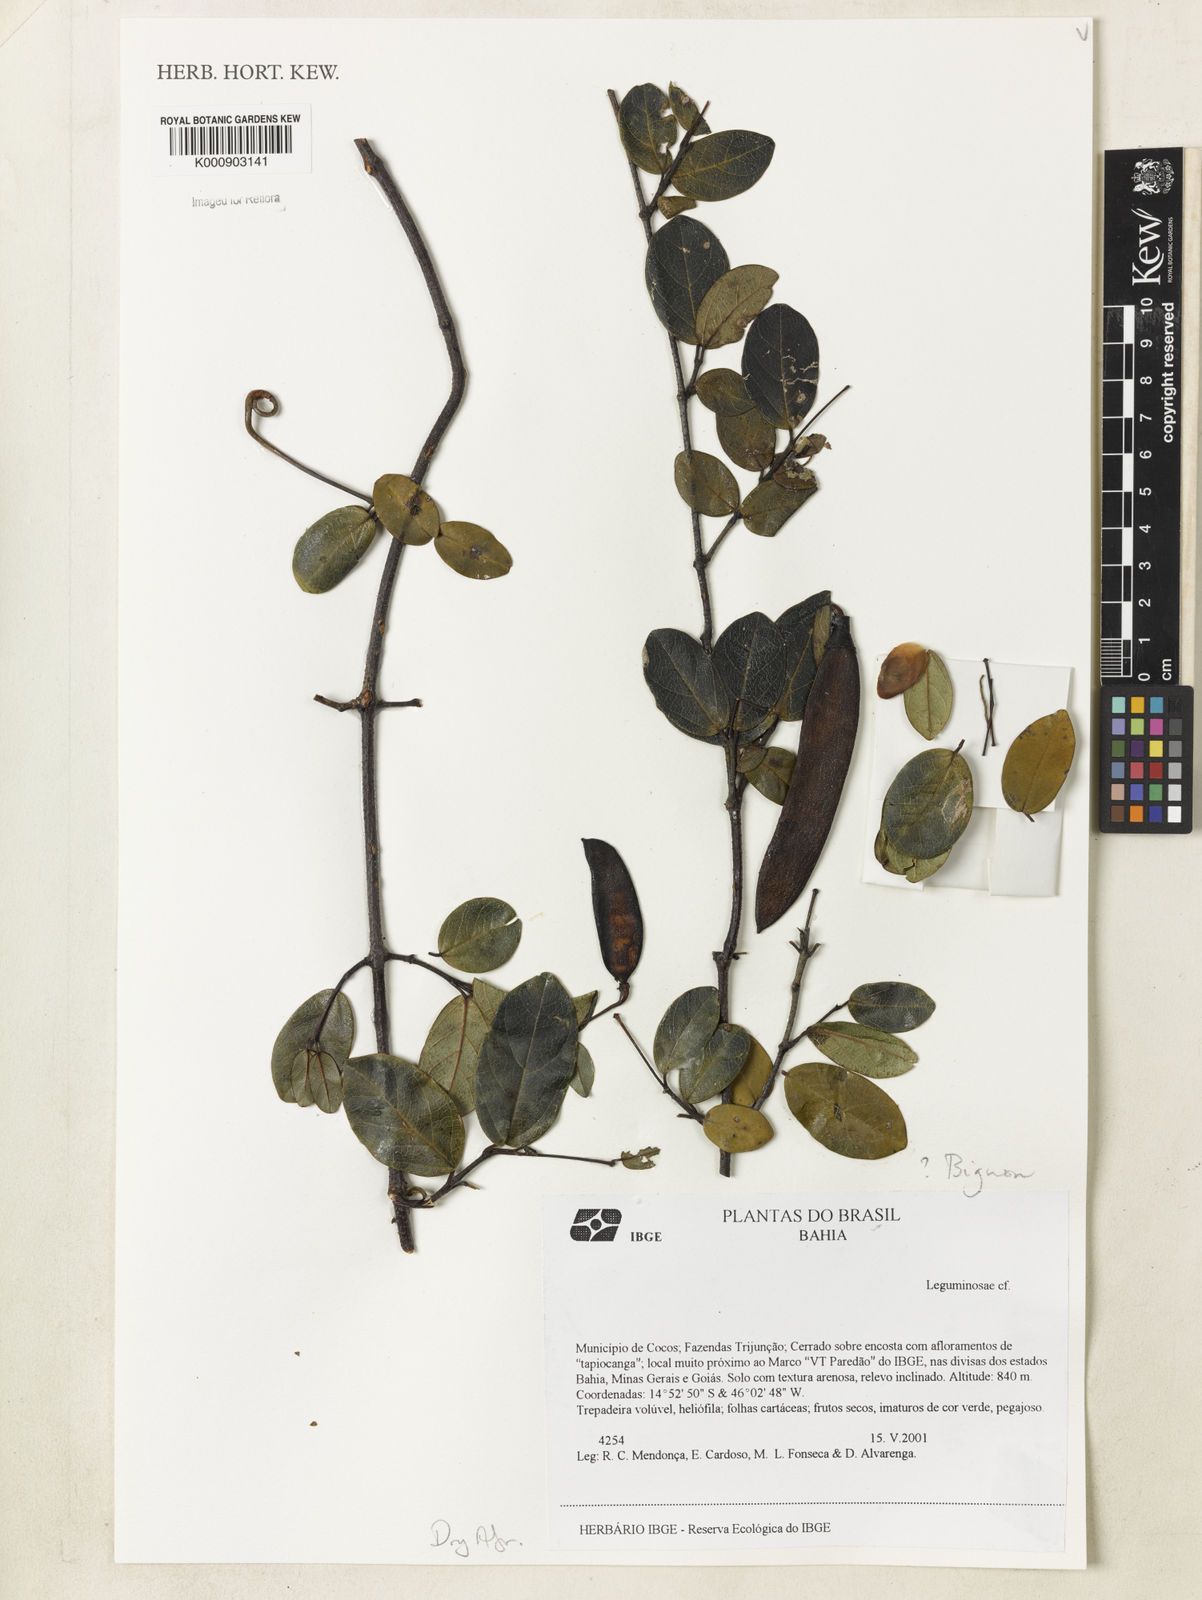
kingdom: Plantae
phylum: Tracheophyta
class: Magnoliopsida
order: Lamiales
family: Bignoniaceae
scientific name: Bignoniaceae
